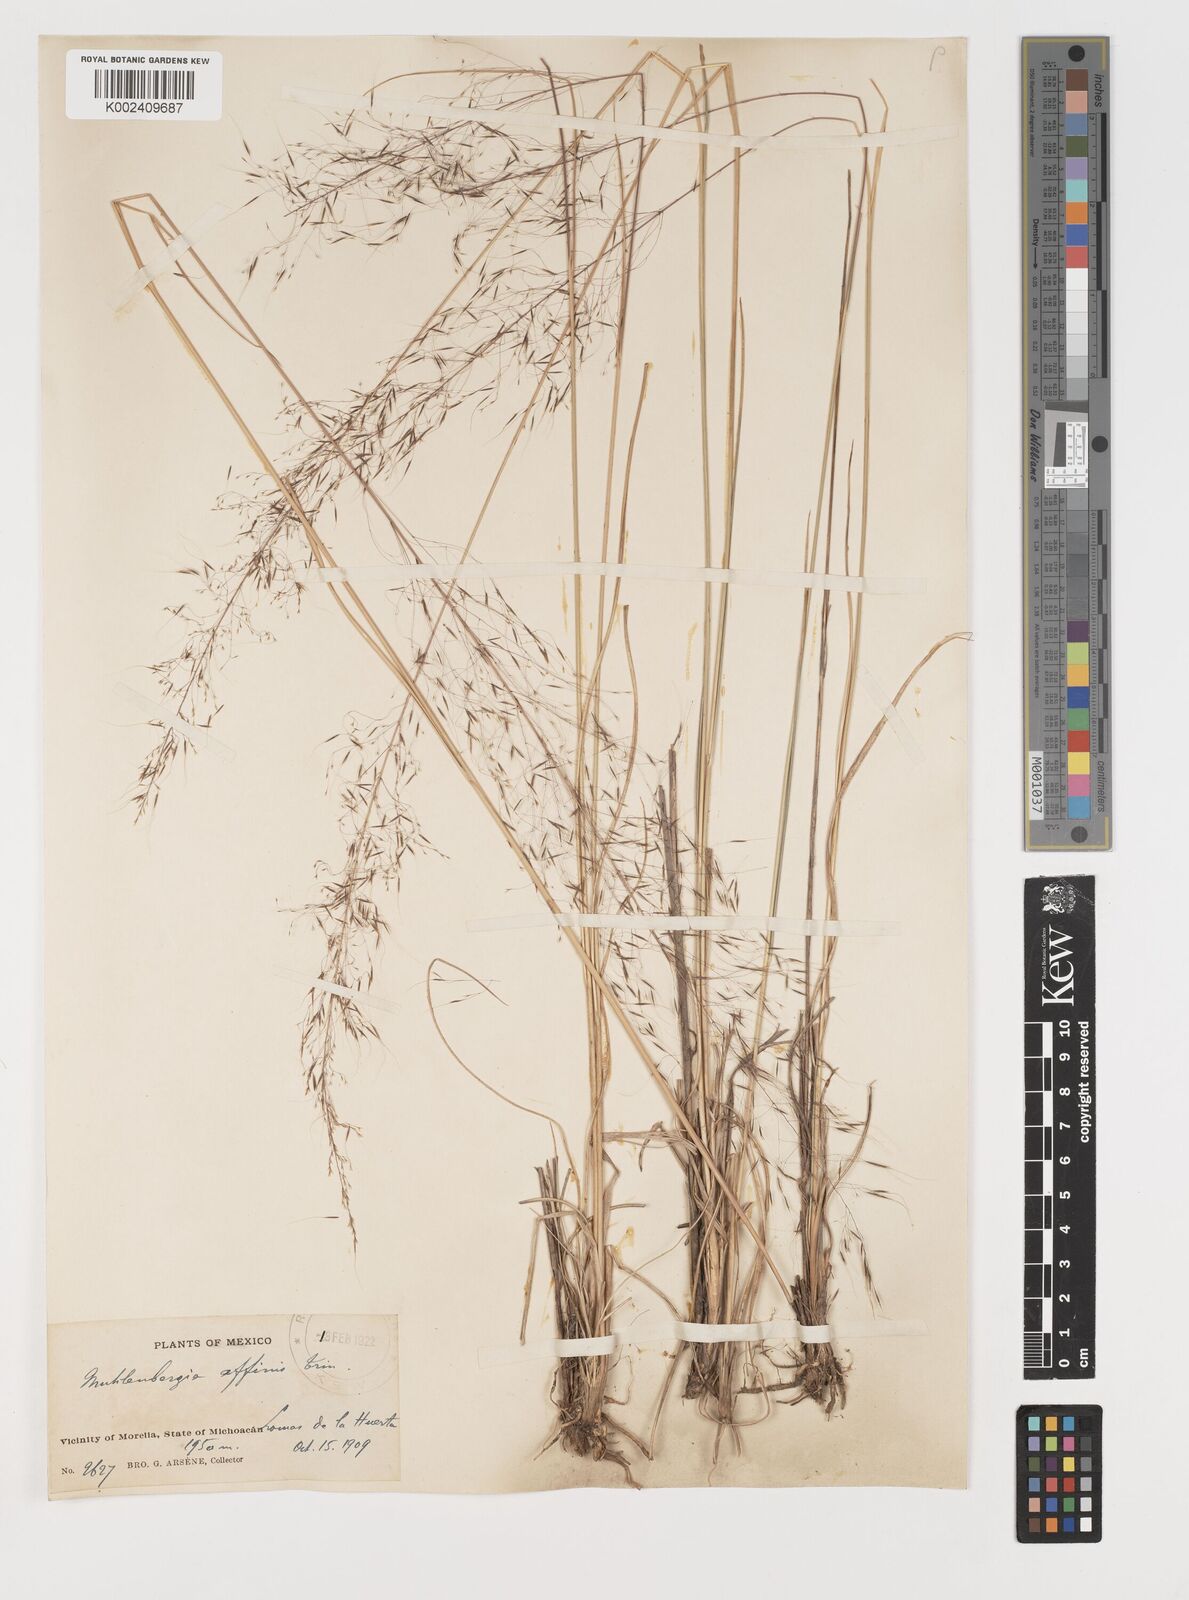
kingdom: Plantae
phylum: Tracheophyta
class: Liliopsida
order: Poales
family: Poaceae
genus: Muhlenbergia
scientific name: Muhlenbergia rigida
